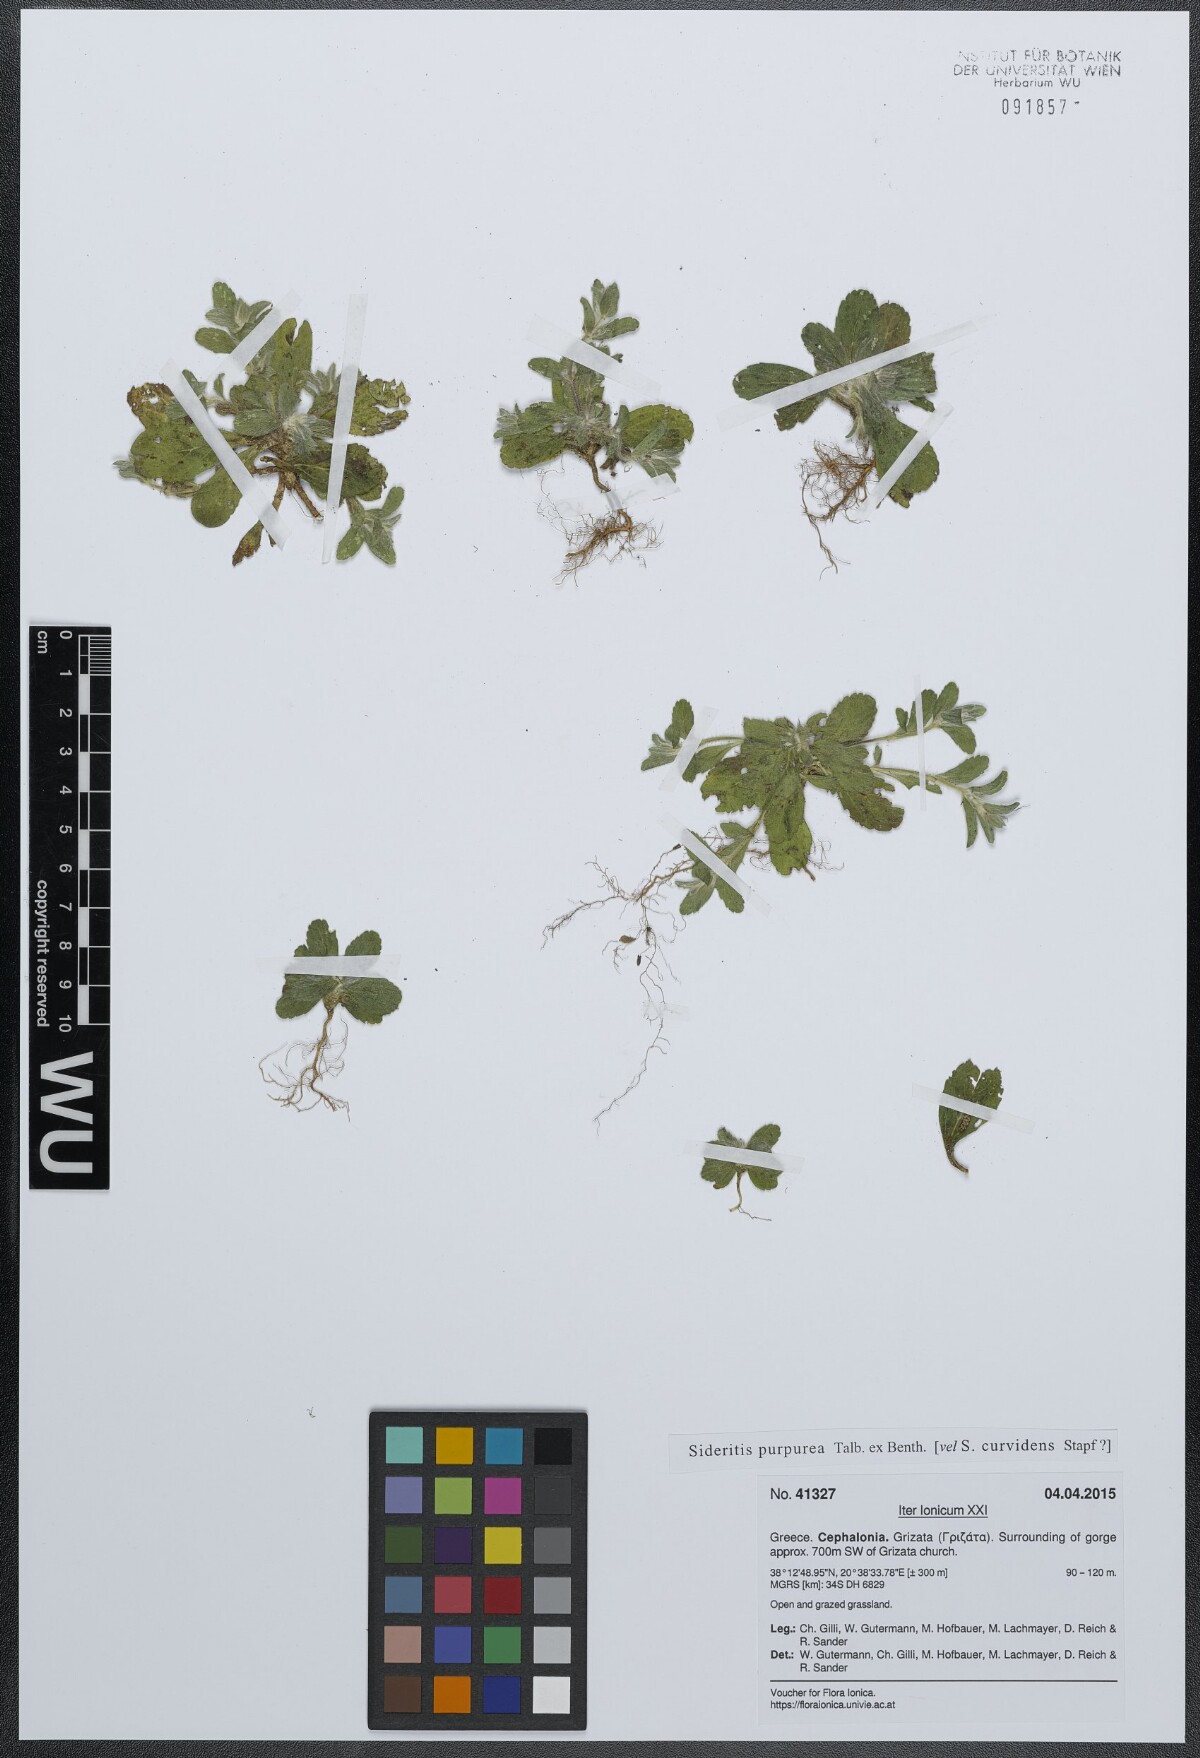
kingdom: Plantae
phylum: Tracheophyta
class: Magnoliopsida
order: Lamiales
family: Lamiaceae
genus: Sideritis
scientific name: Sideritis romana
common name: Simplebeak ironwort
